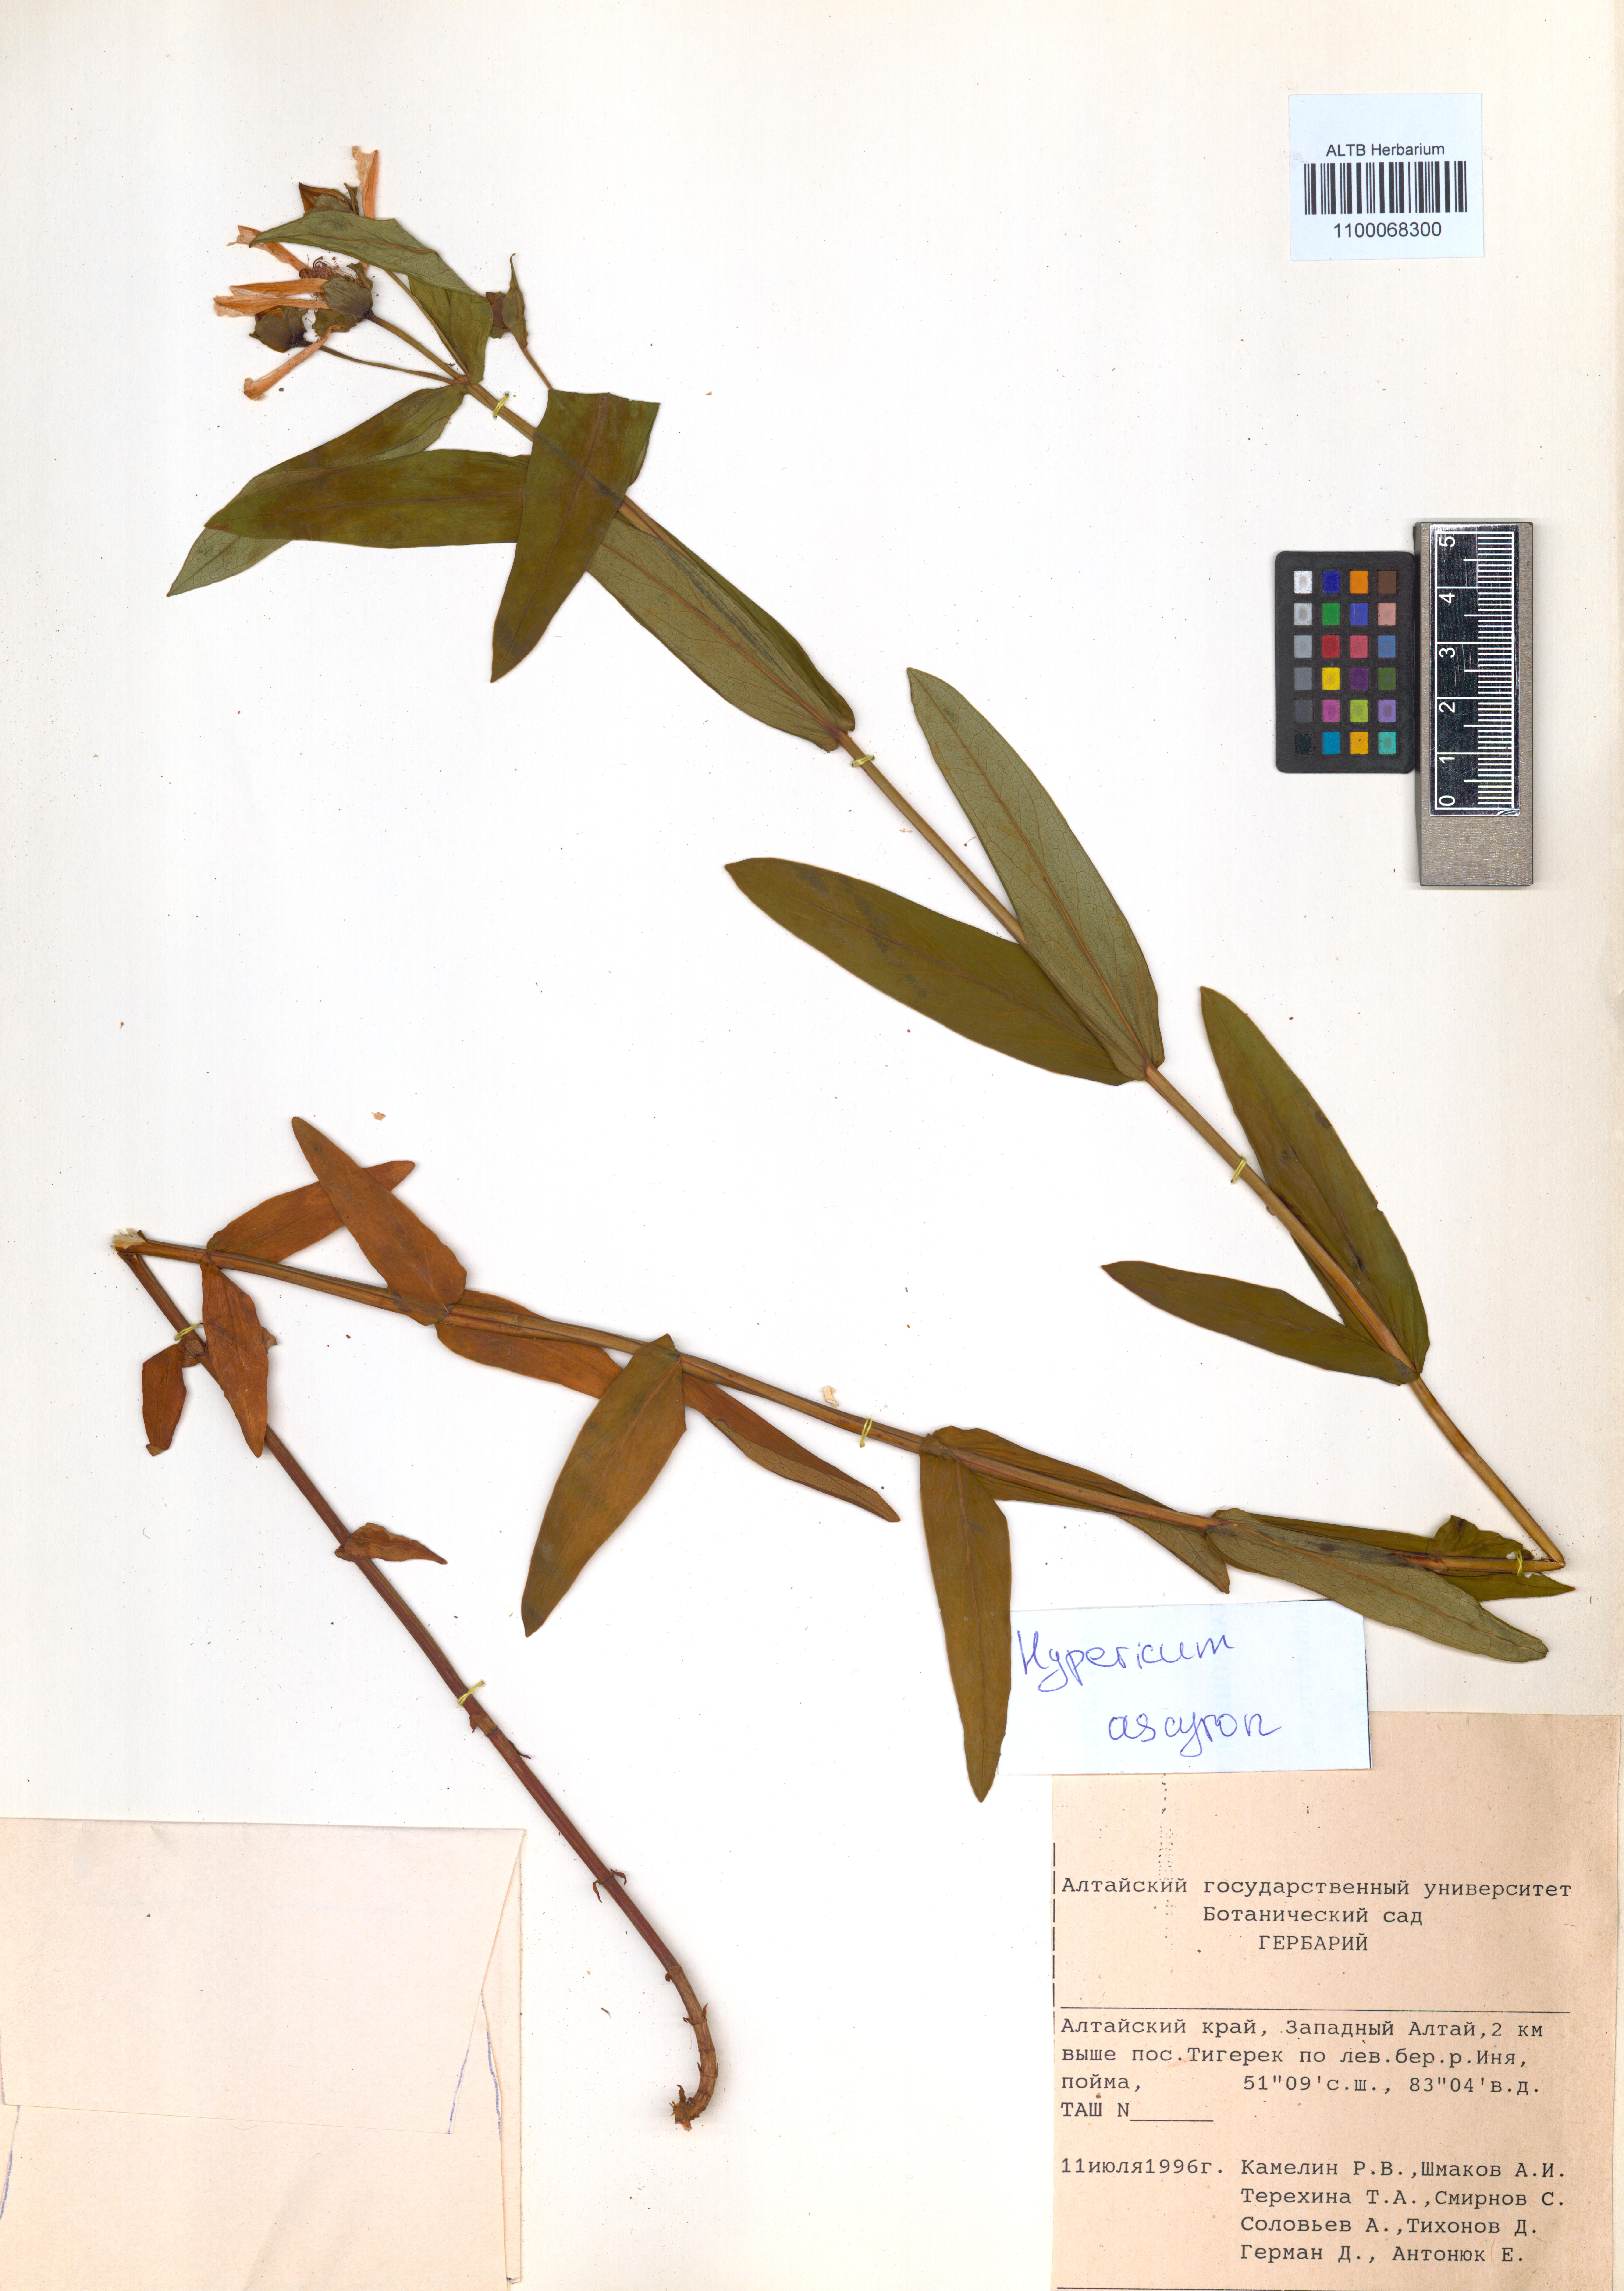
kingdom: Plantae
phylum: Tracheophyta
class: Magnoliopsida
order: Malpighiales
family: Hypericaceae
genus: Hypericum
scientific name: Hypericum ascyron
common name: Giant st. john's-wort
